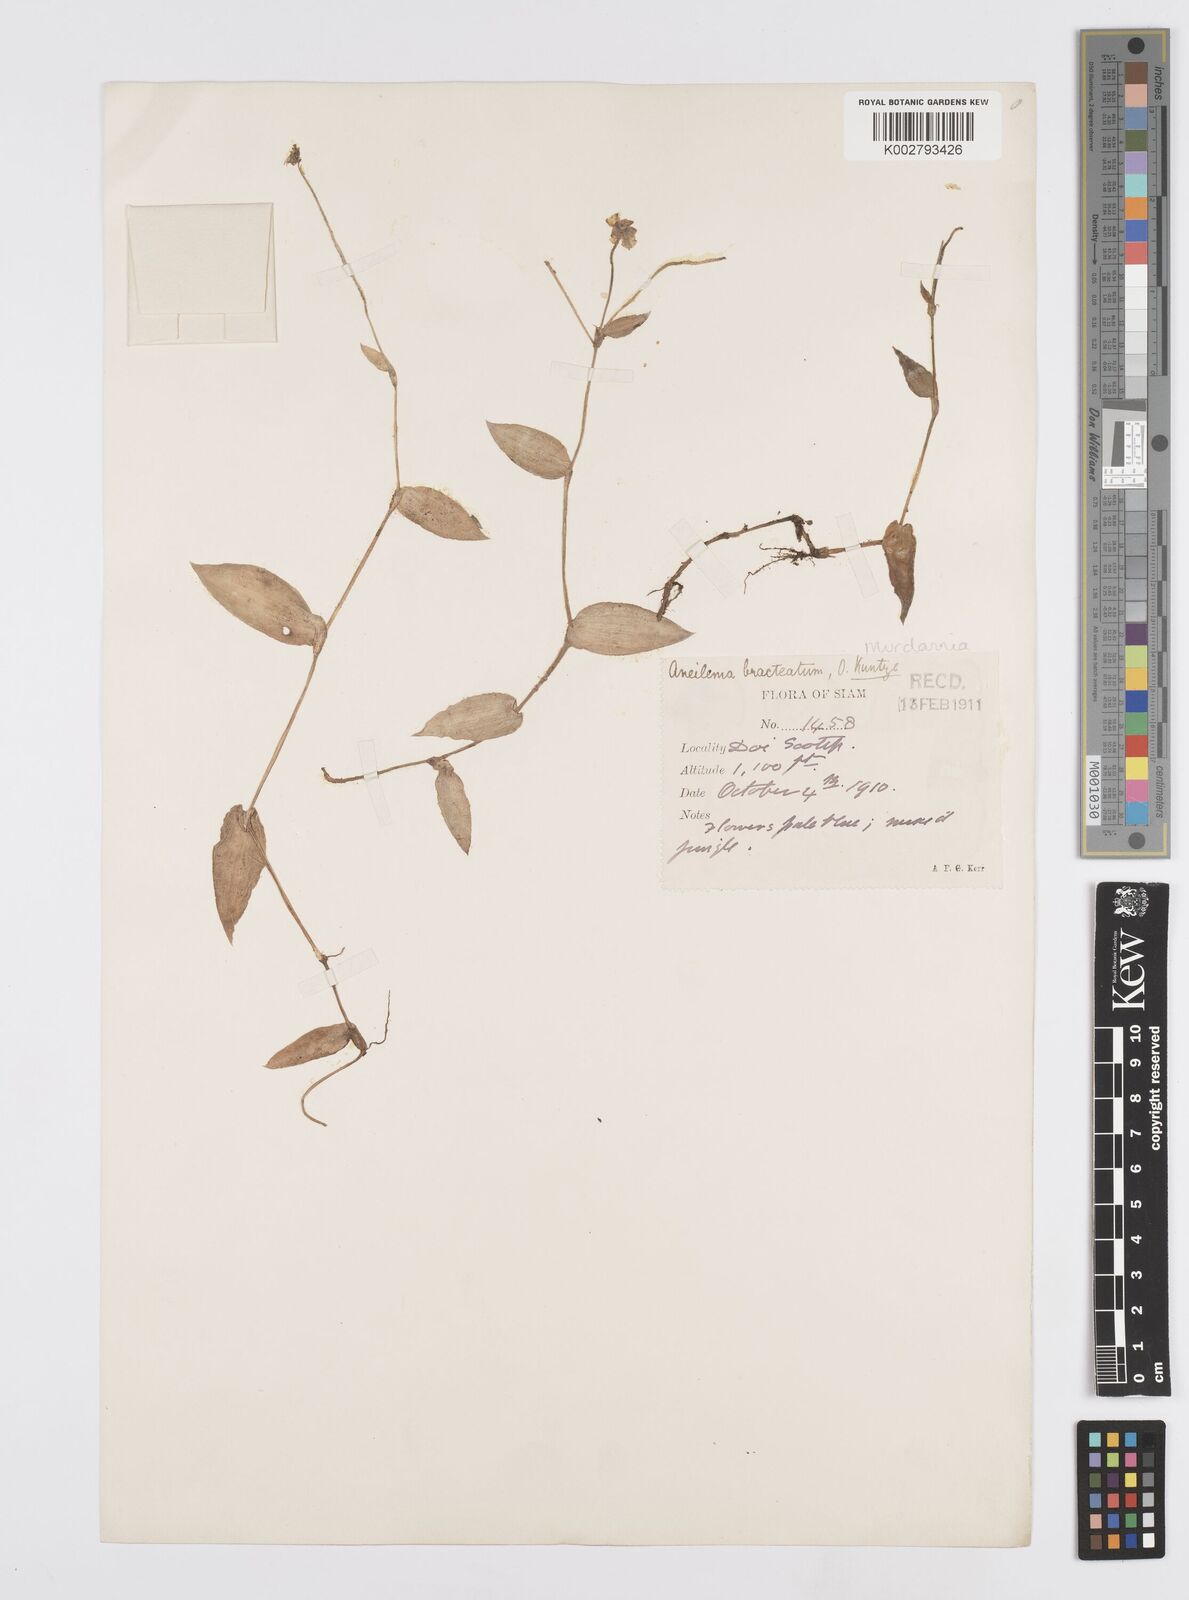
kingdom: Plantae
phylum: Tracheophyta
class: Liliopsida
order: Commelinales
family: Commelinaceae
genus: Murdannia
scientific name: Murdannia bracteata
